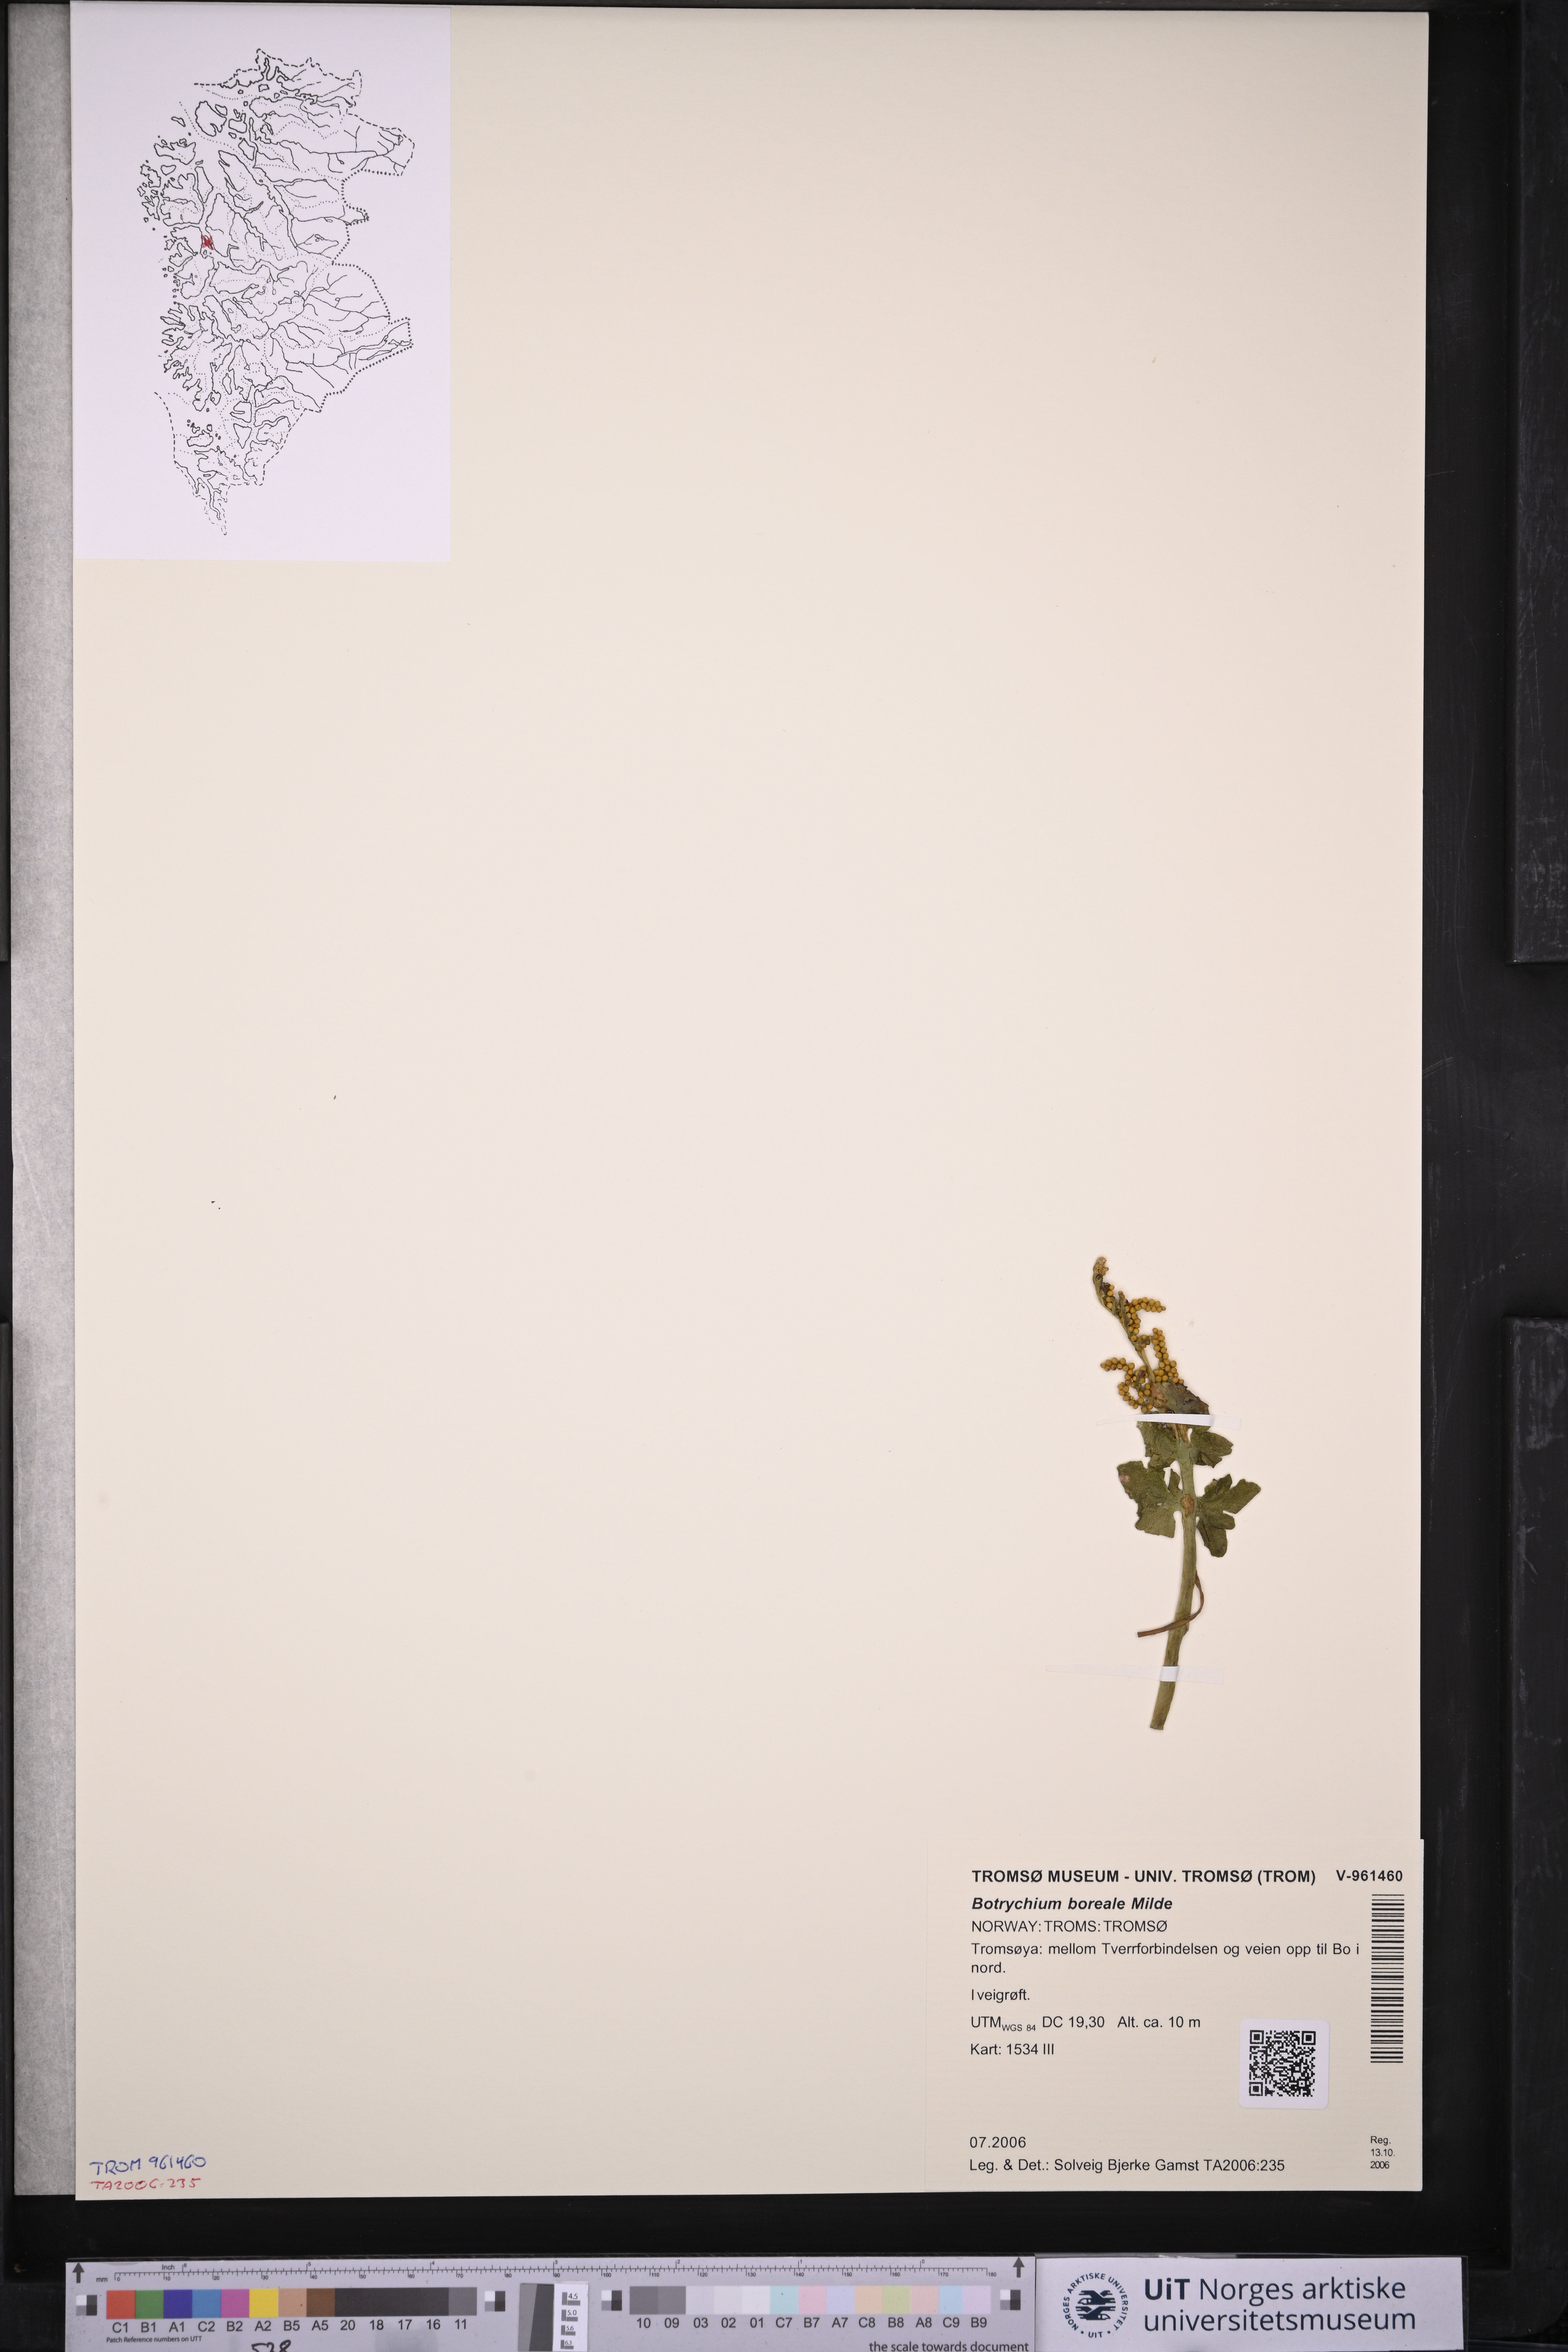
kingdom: Plantae
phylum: Tracheophyta
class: Polypodiopsida
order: Ophioglossales
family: Ophioglossaceae
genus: Botrychium
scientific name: Botrychium boreale
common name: Boreal moonwort
